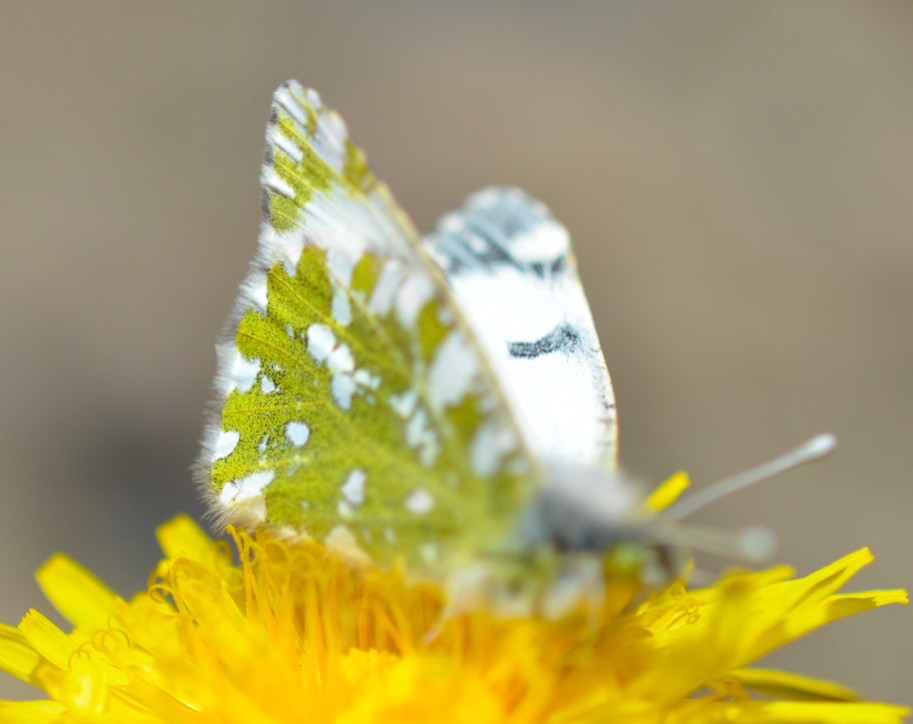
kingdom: Animalia
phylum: Arthropoda
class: Insecta
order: Lepidoptera
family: Pieridae
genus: Euchloe
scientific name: Euchloe ausonides
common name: Large Marble
